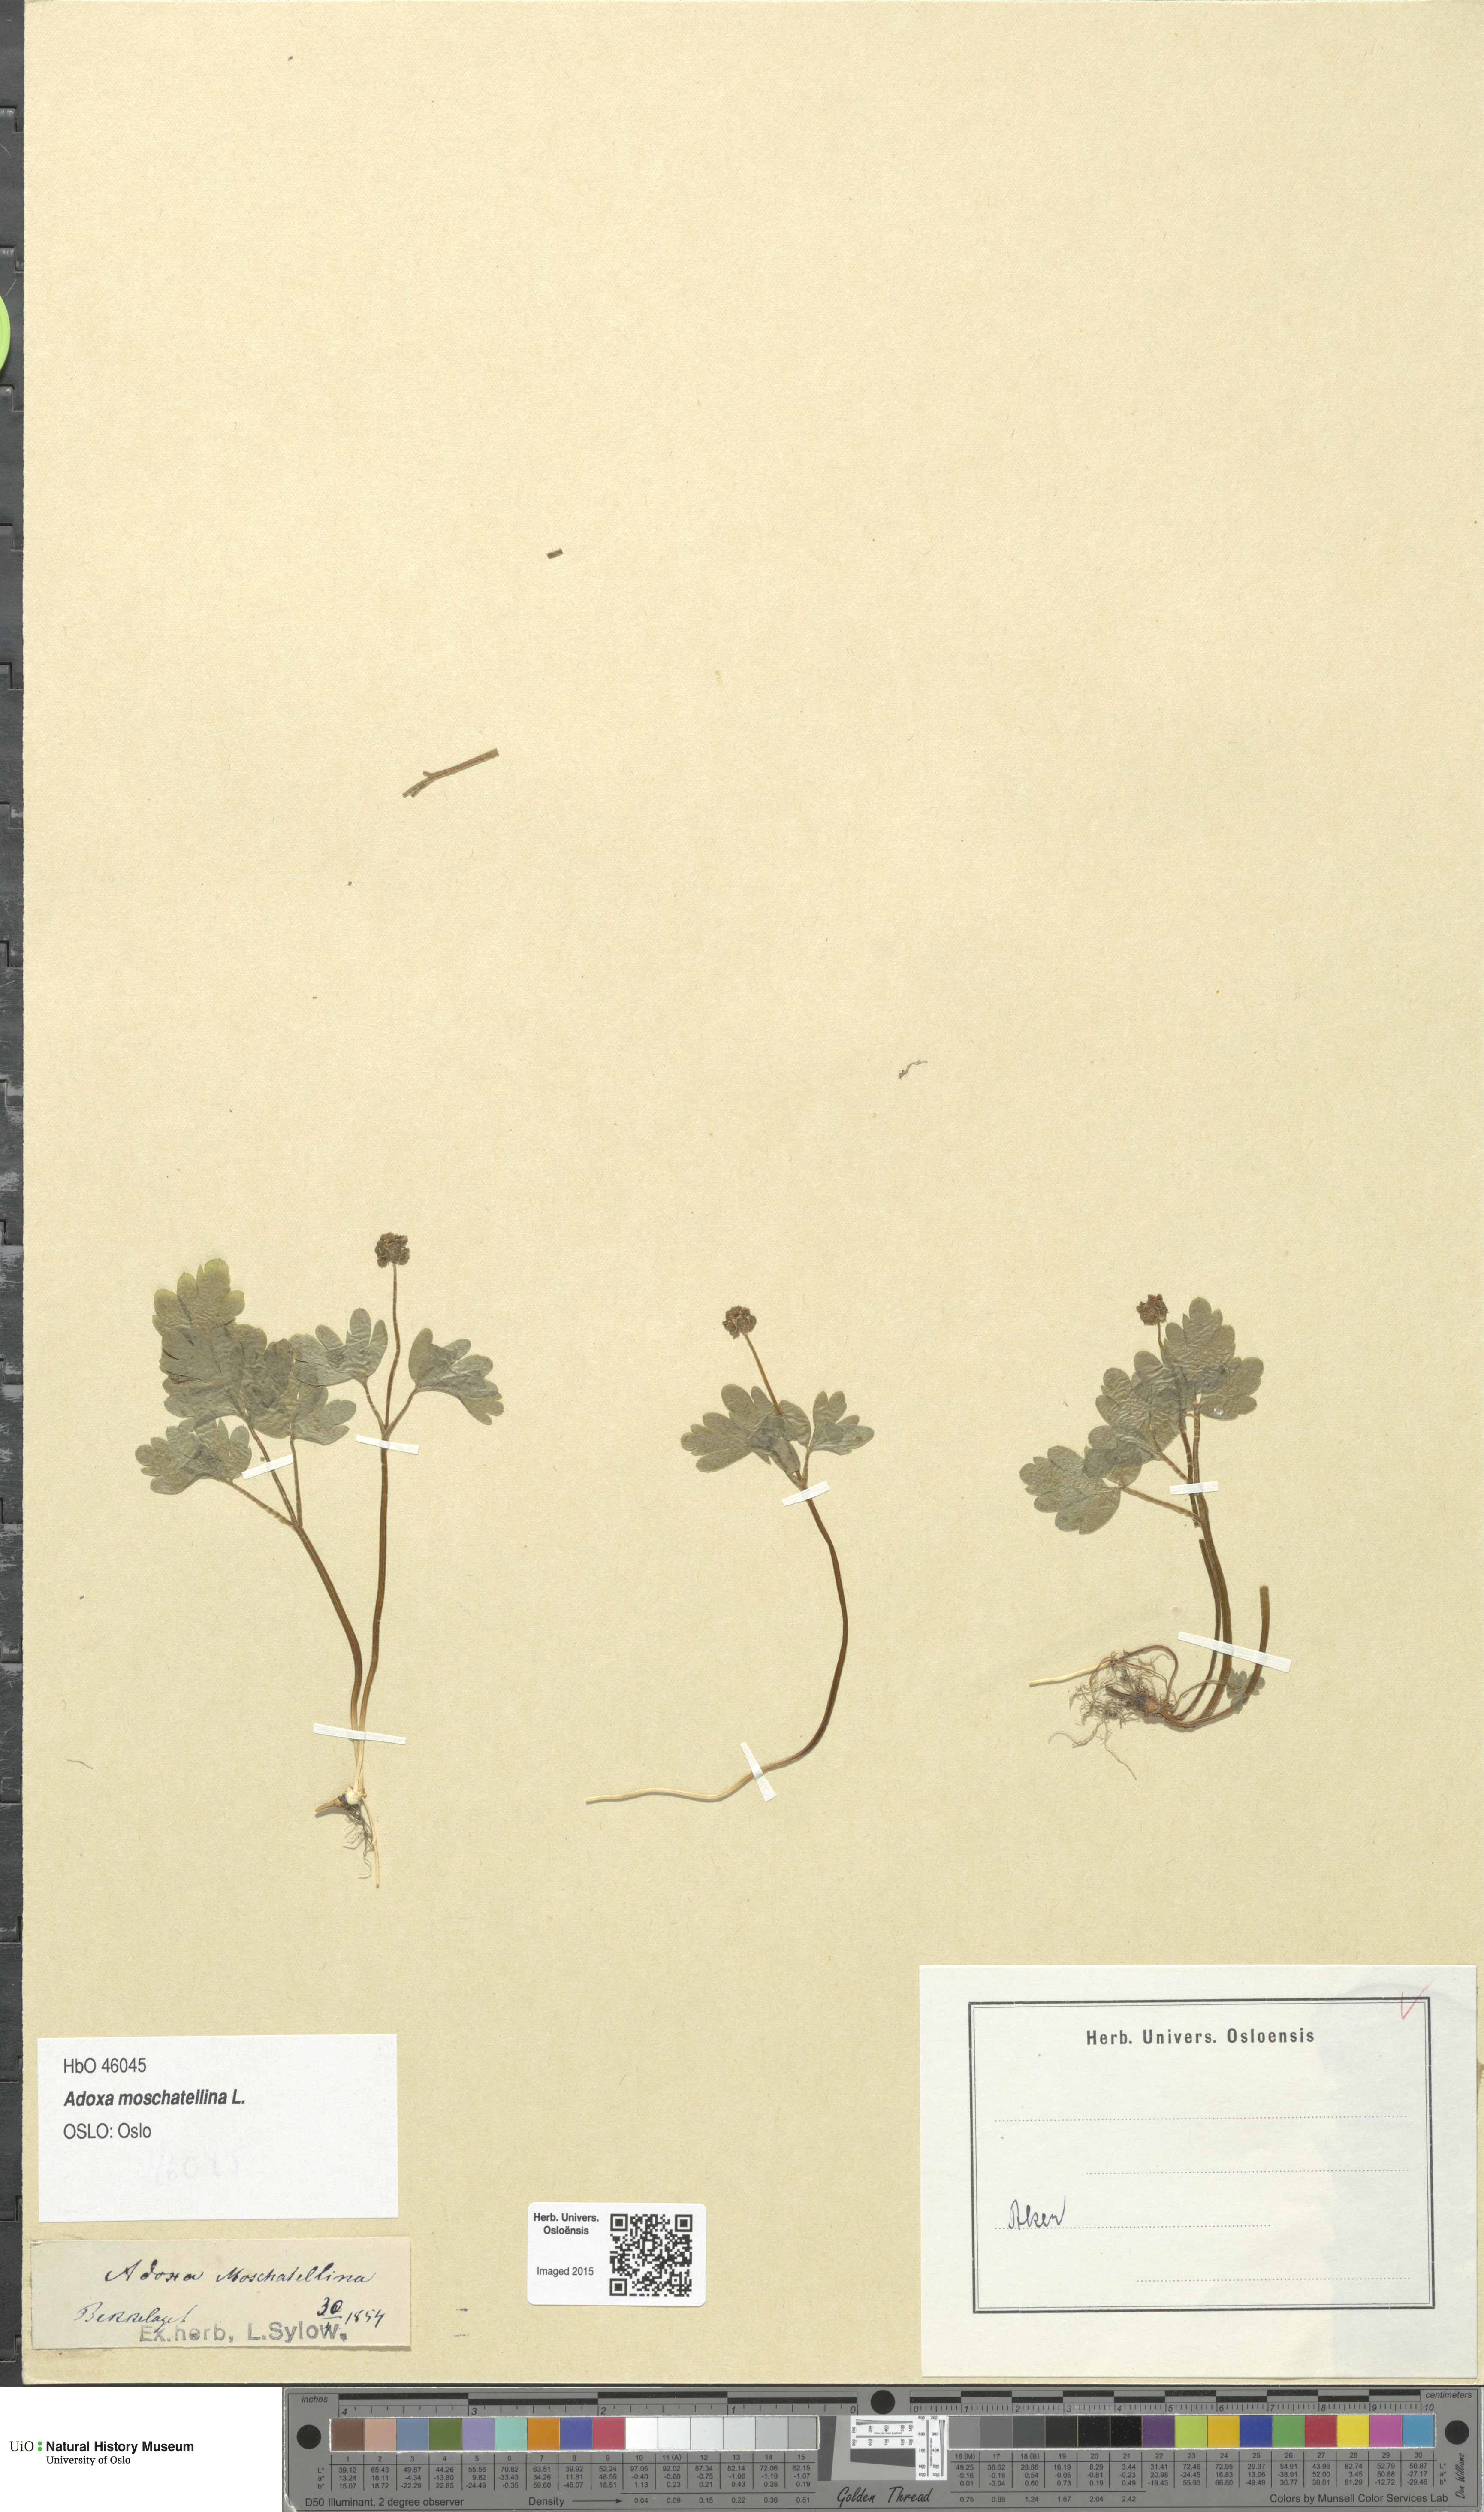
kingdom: Plantae
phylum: Tracheophyta
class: Magnoliopsida
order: Dipsacales
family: Viburnaceae
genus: Adoxa
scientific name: Adoxa moschatellina
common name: Moschatel
